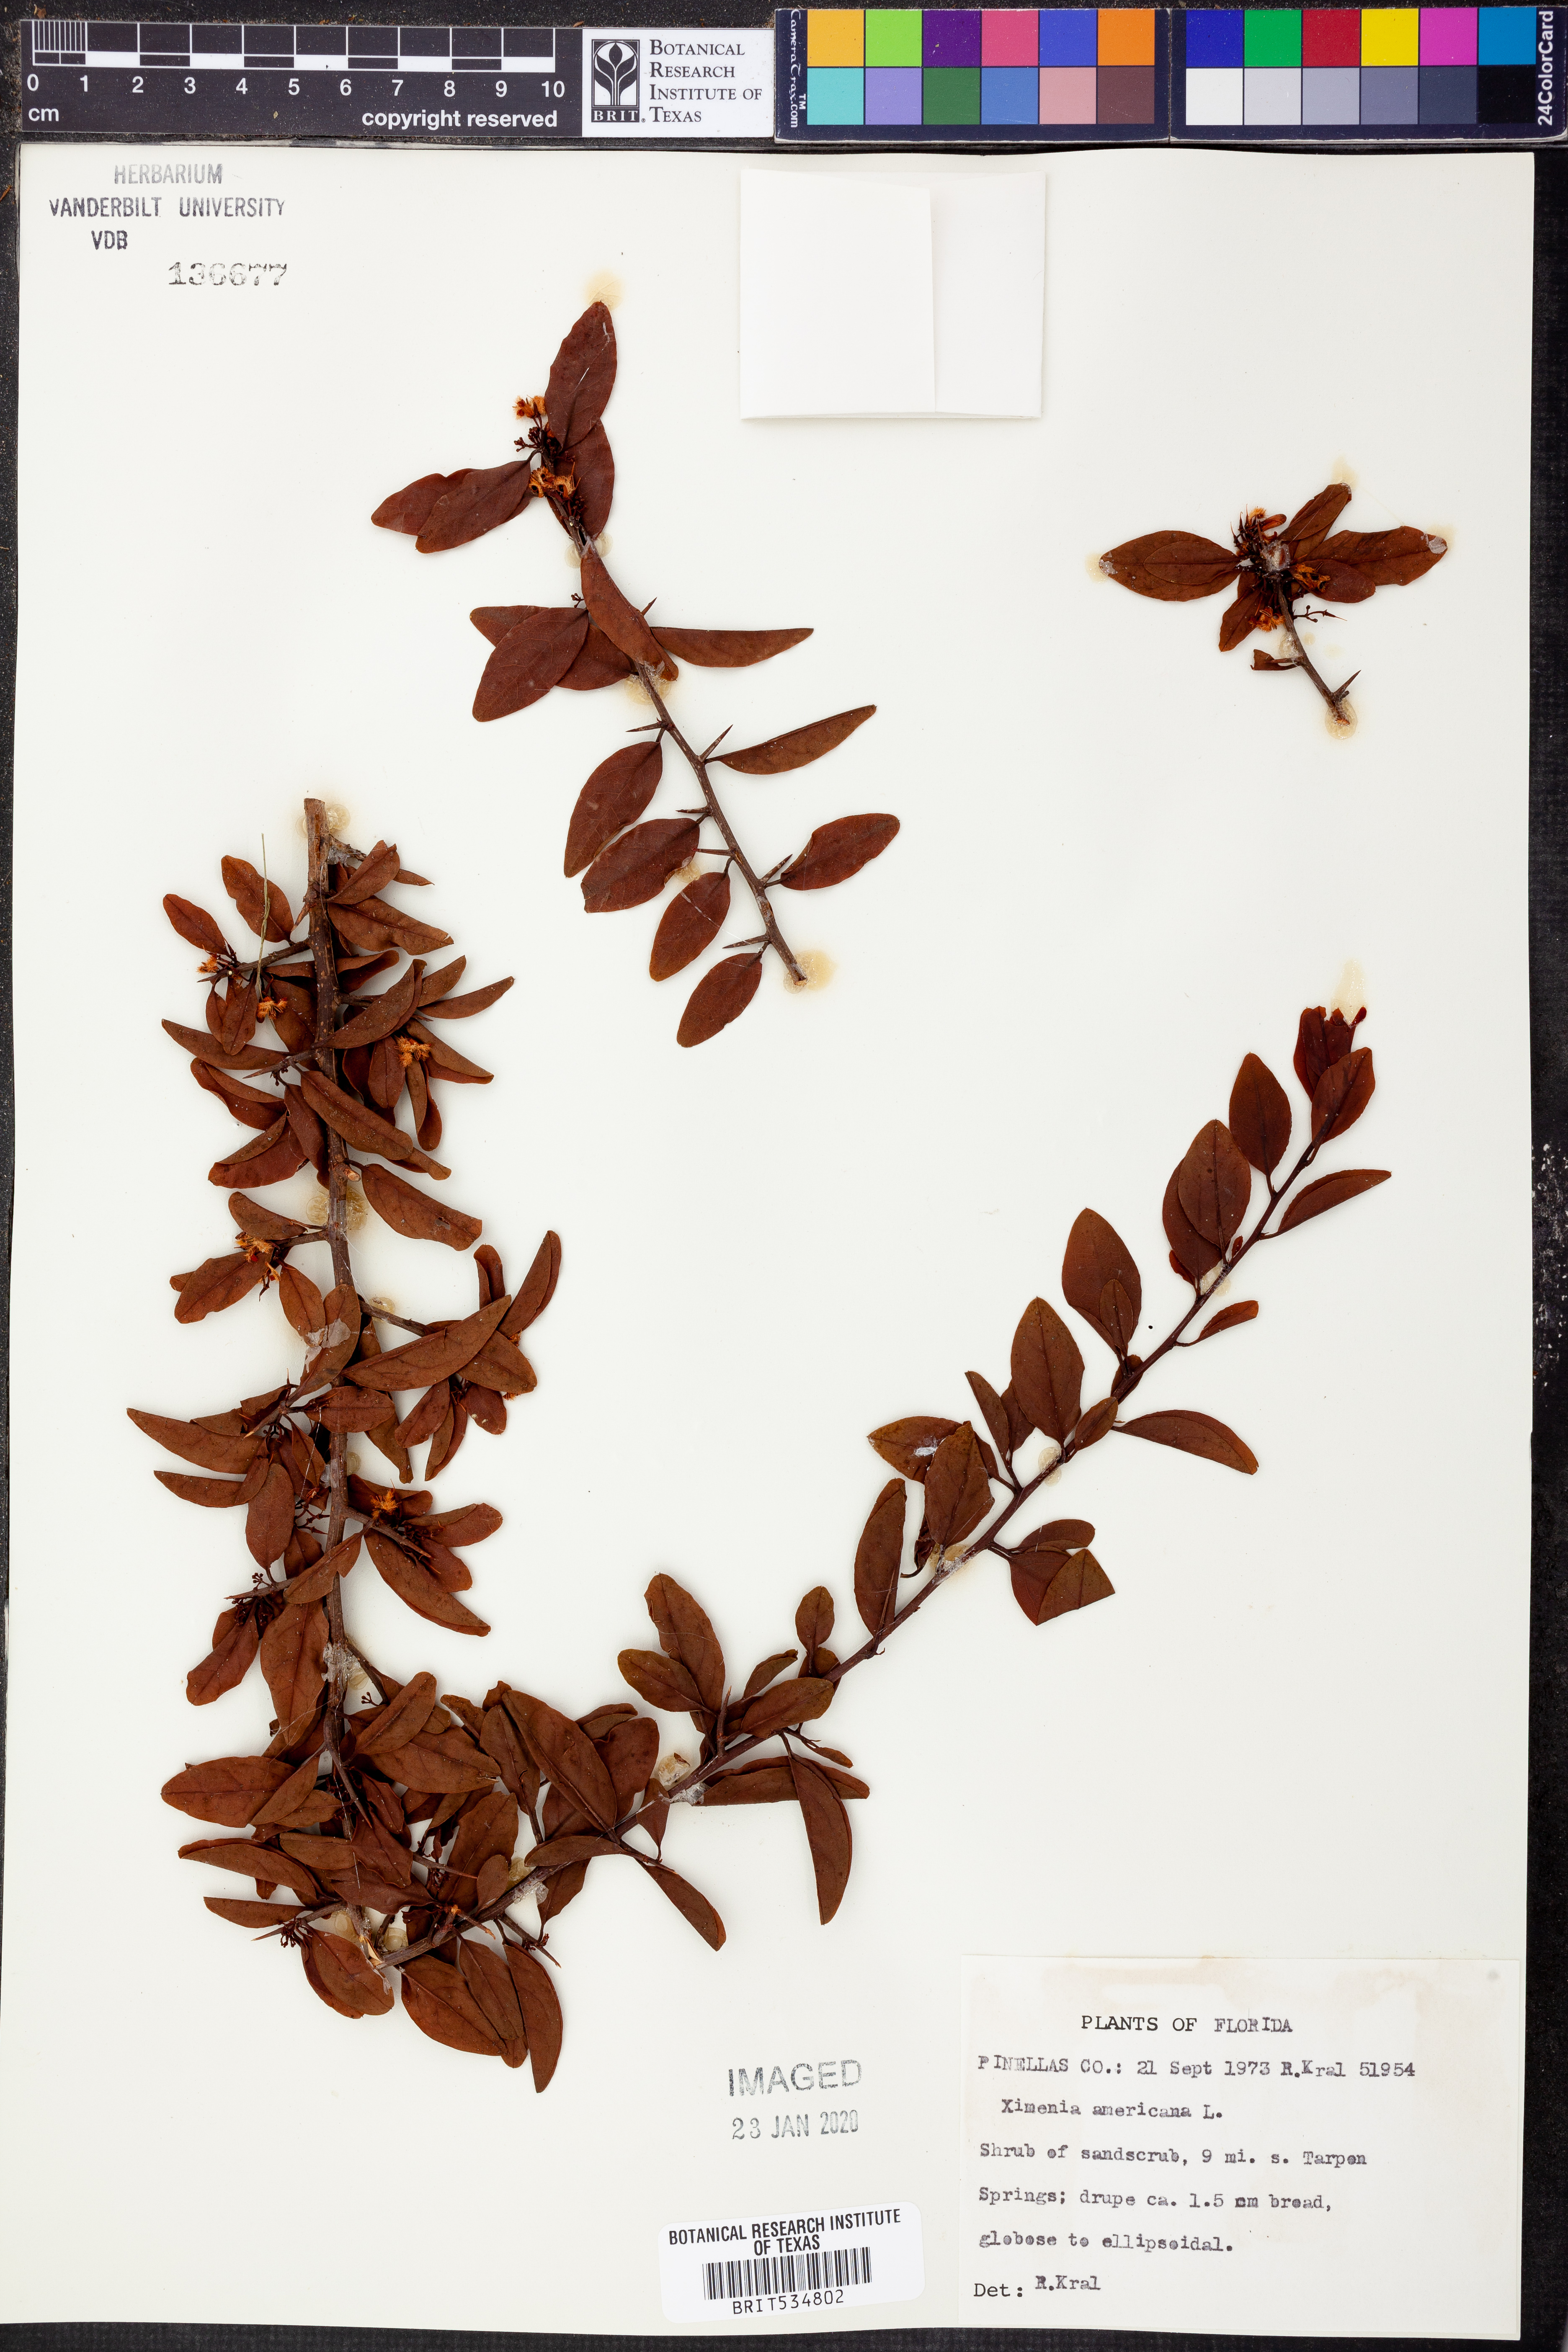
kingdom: Plantae
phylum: Tracheophyta
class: Magnoliopsida
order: Santalales
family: Ximeniaceae
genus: Ximenia
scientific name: Ximenia americana
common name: Tallowwood
